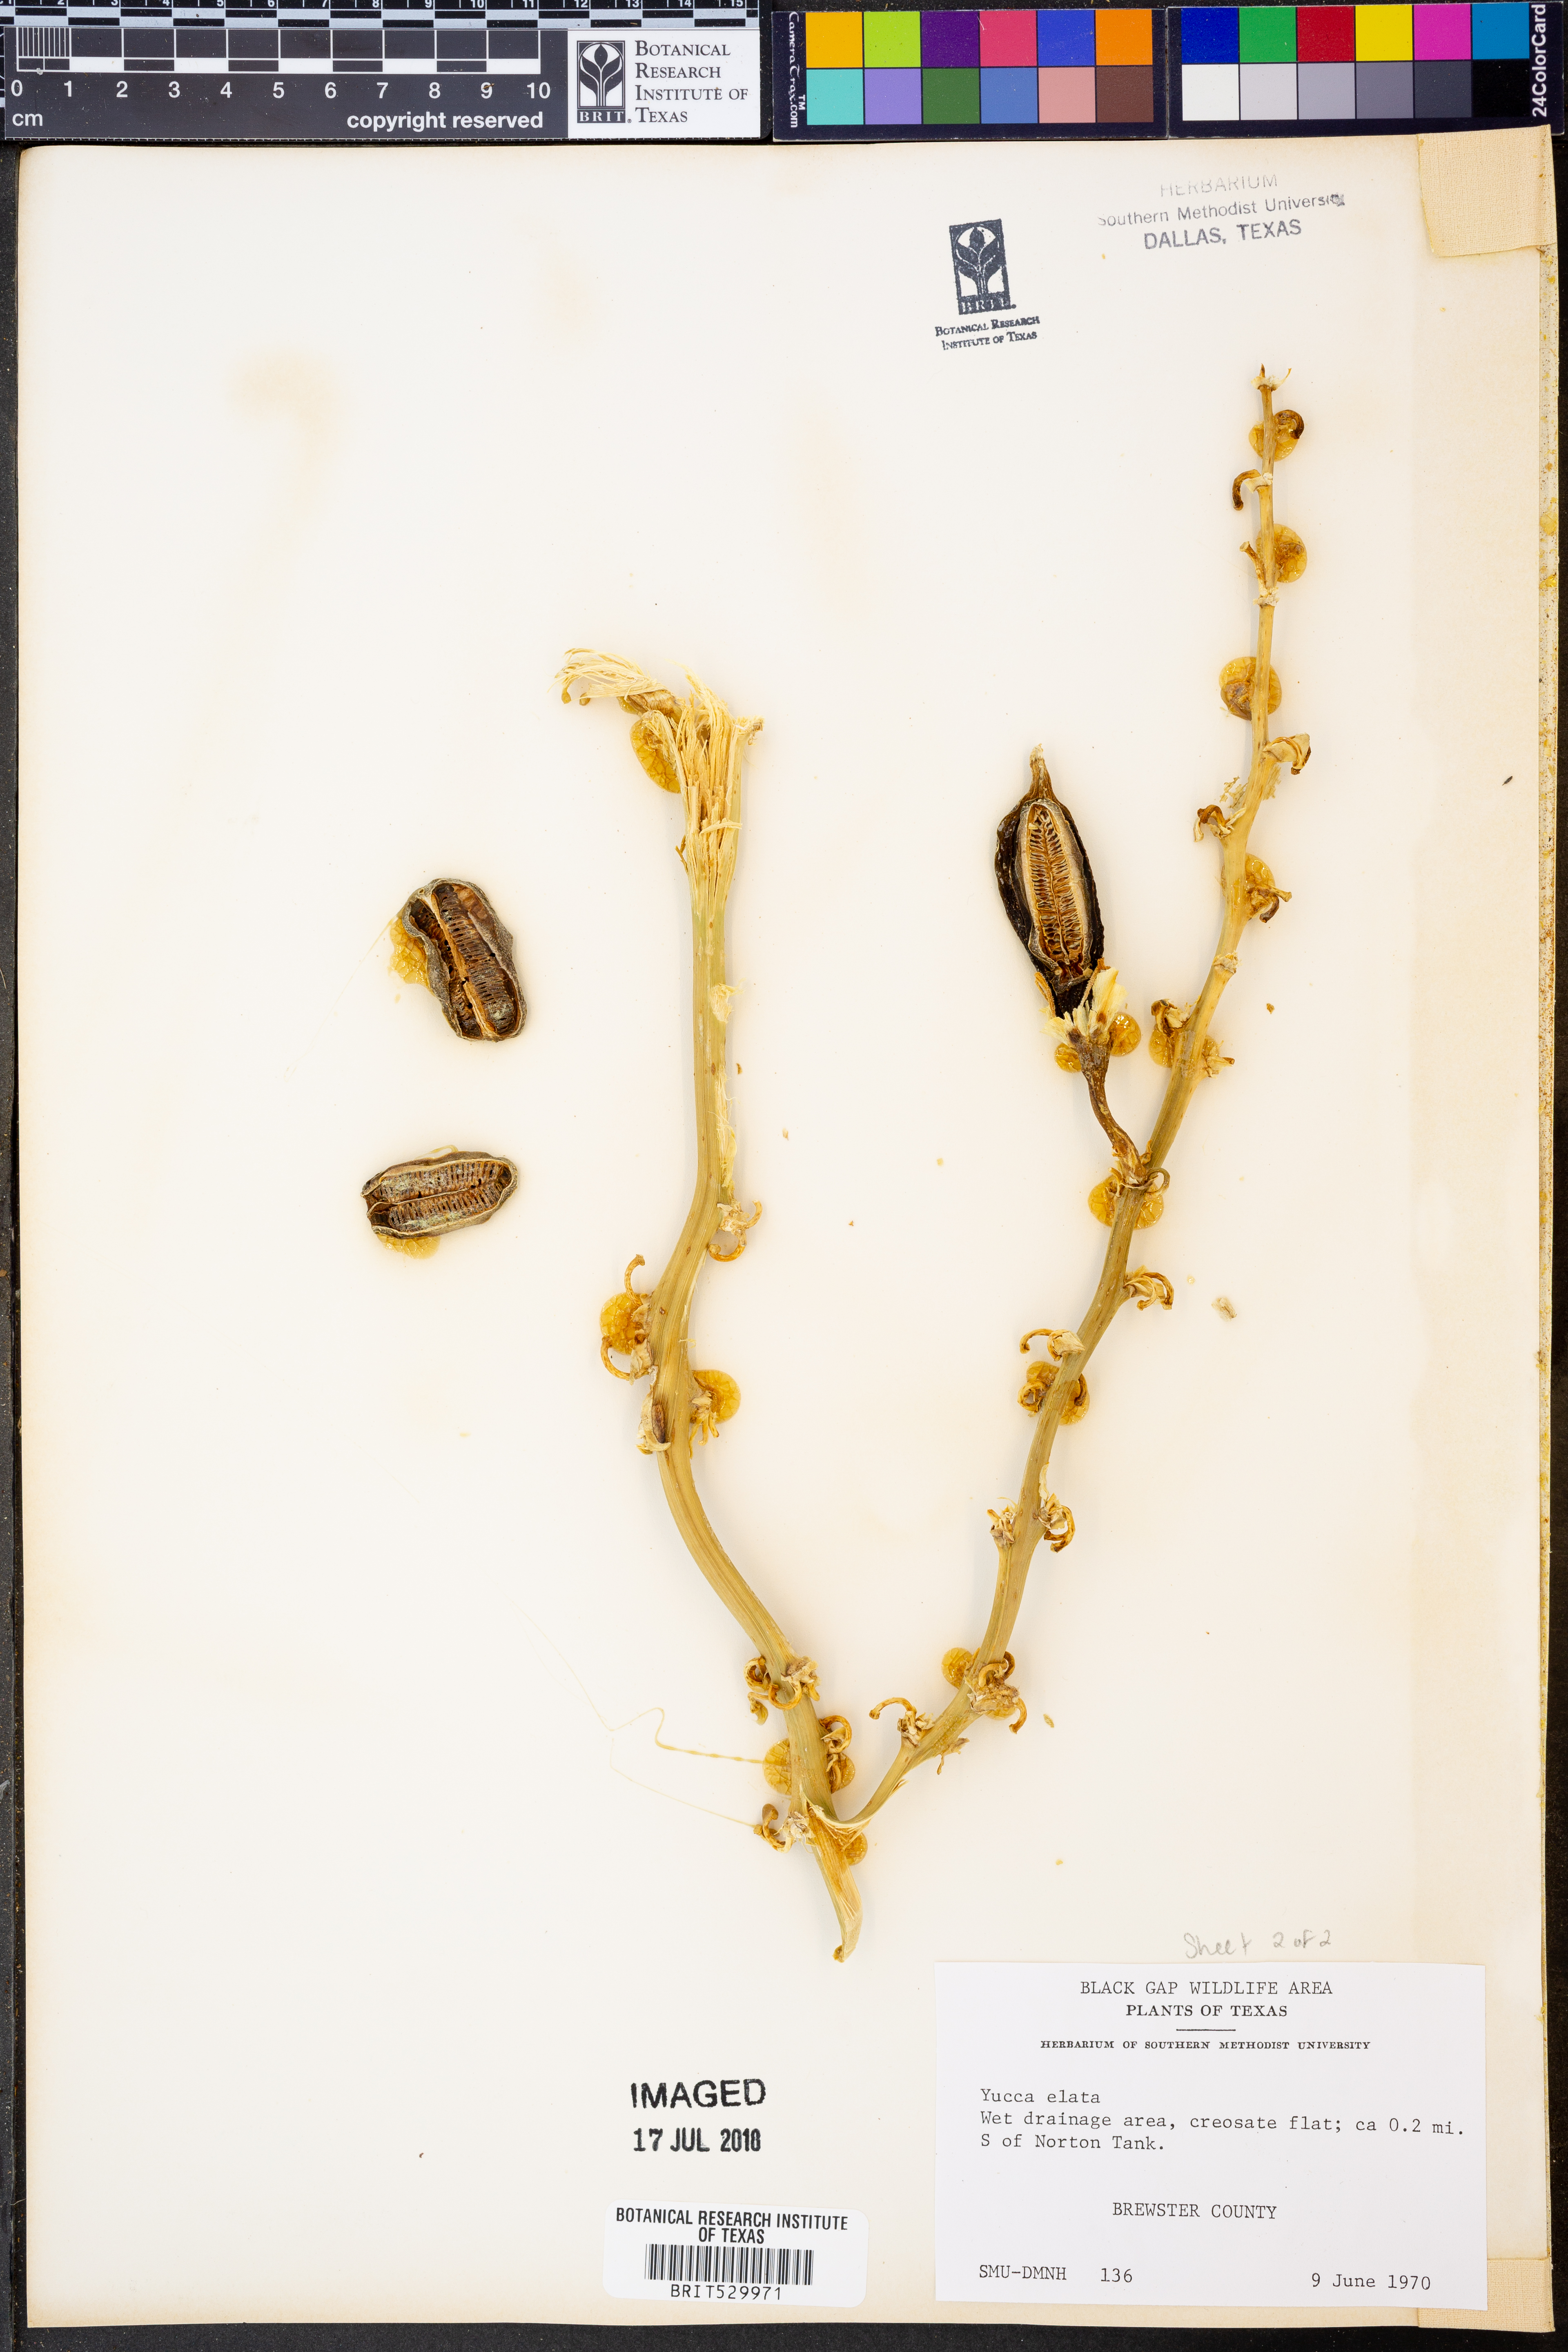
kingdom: Plantae
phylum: Tracheophyta
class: Liliopsida
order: Asparagales
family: Asparagaceae
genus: Yucca
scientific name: Yucca elata
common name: Palmella
